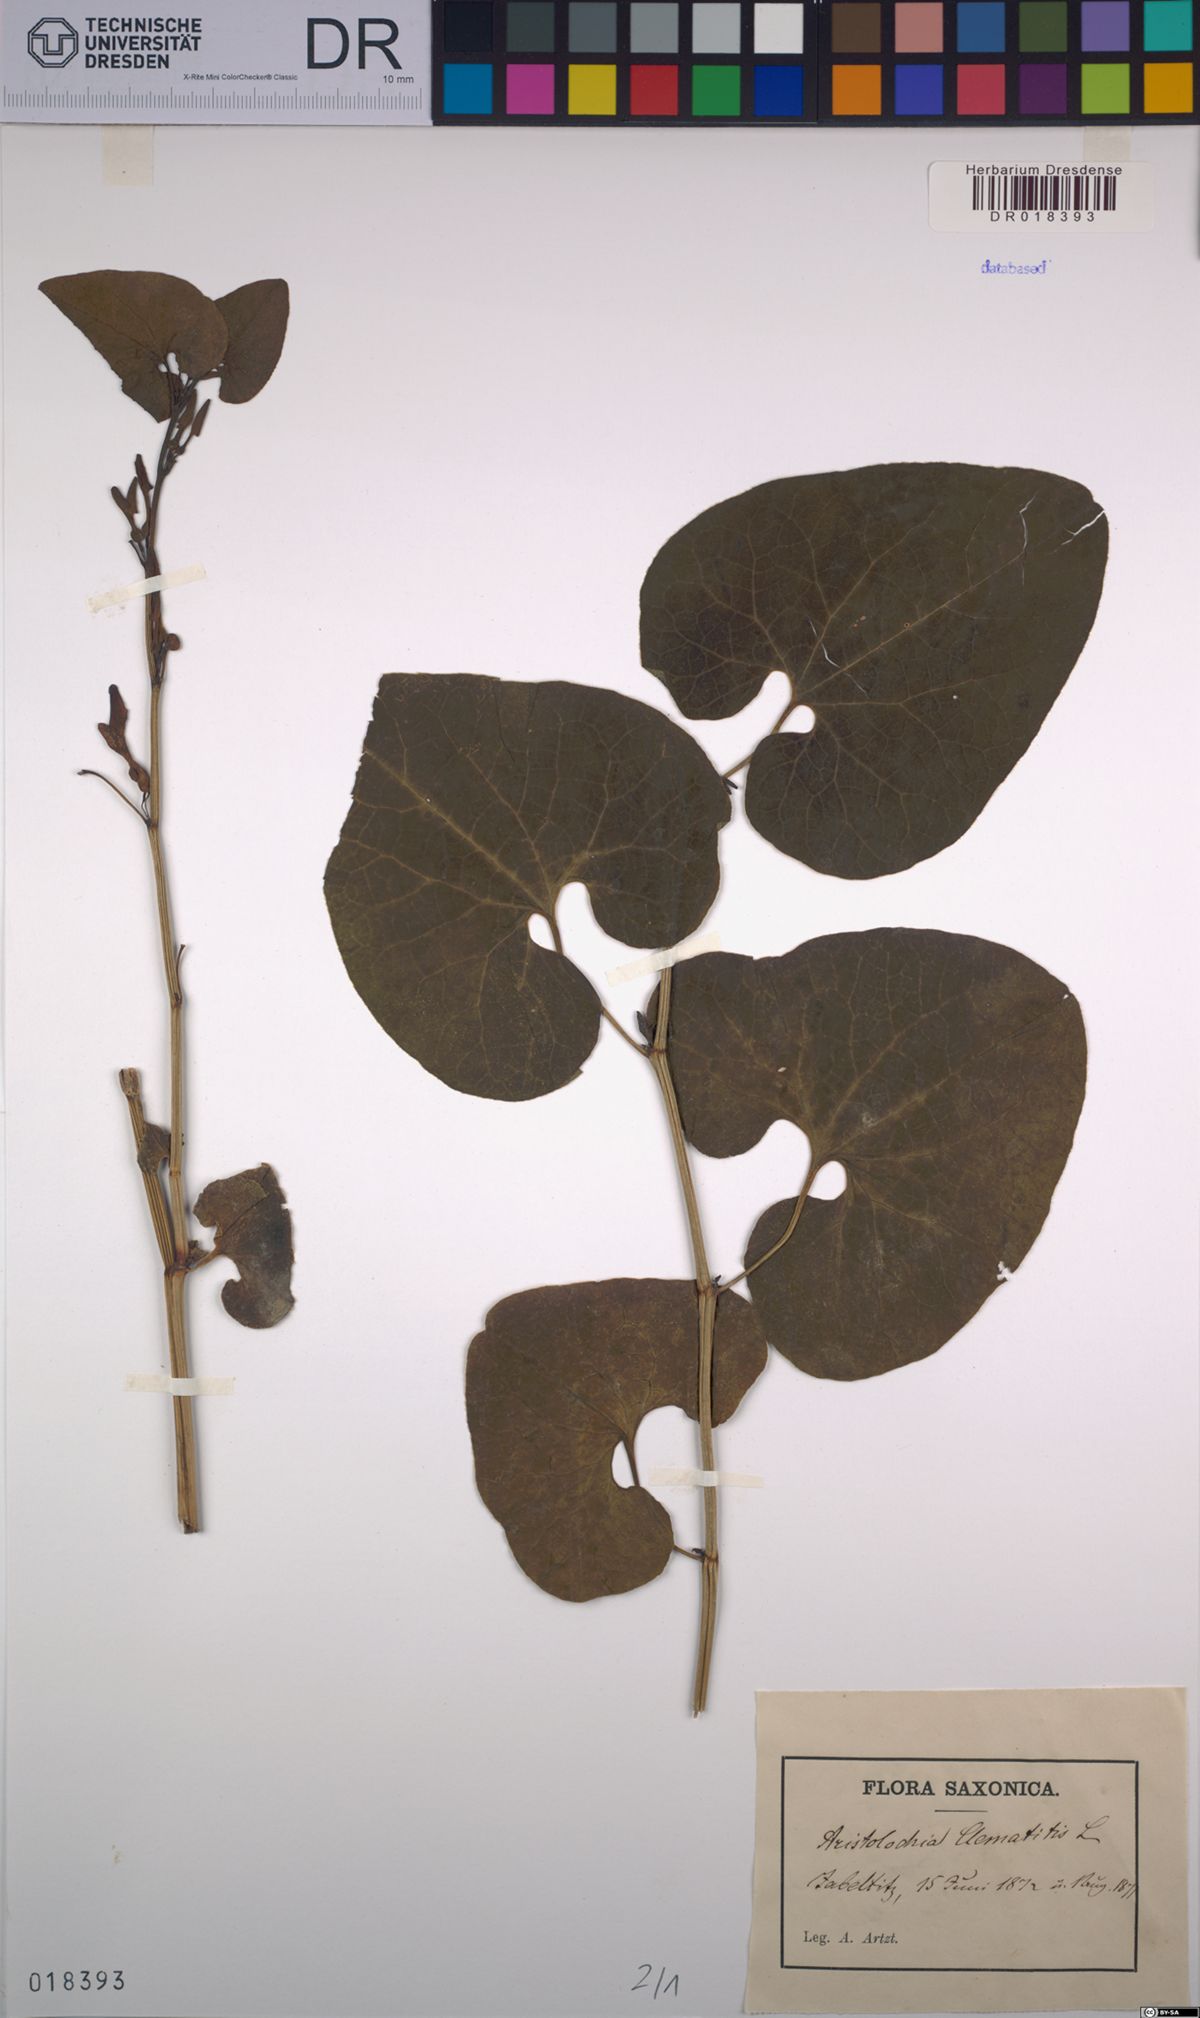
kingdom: Plantae
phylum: Tracheophyta
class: Magnoliopsida
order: Piperales
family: Aristolochiaceae
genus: Aristolochia
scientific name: Aristolochia clematitis
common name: Birthwort
